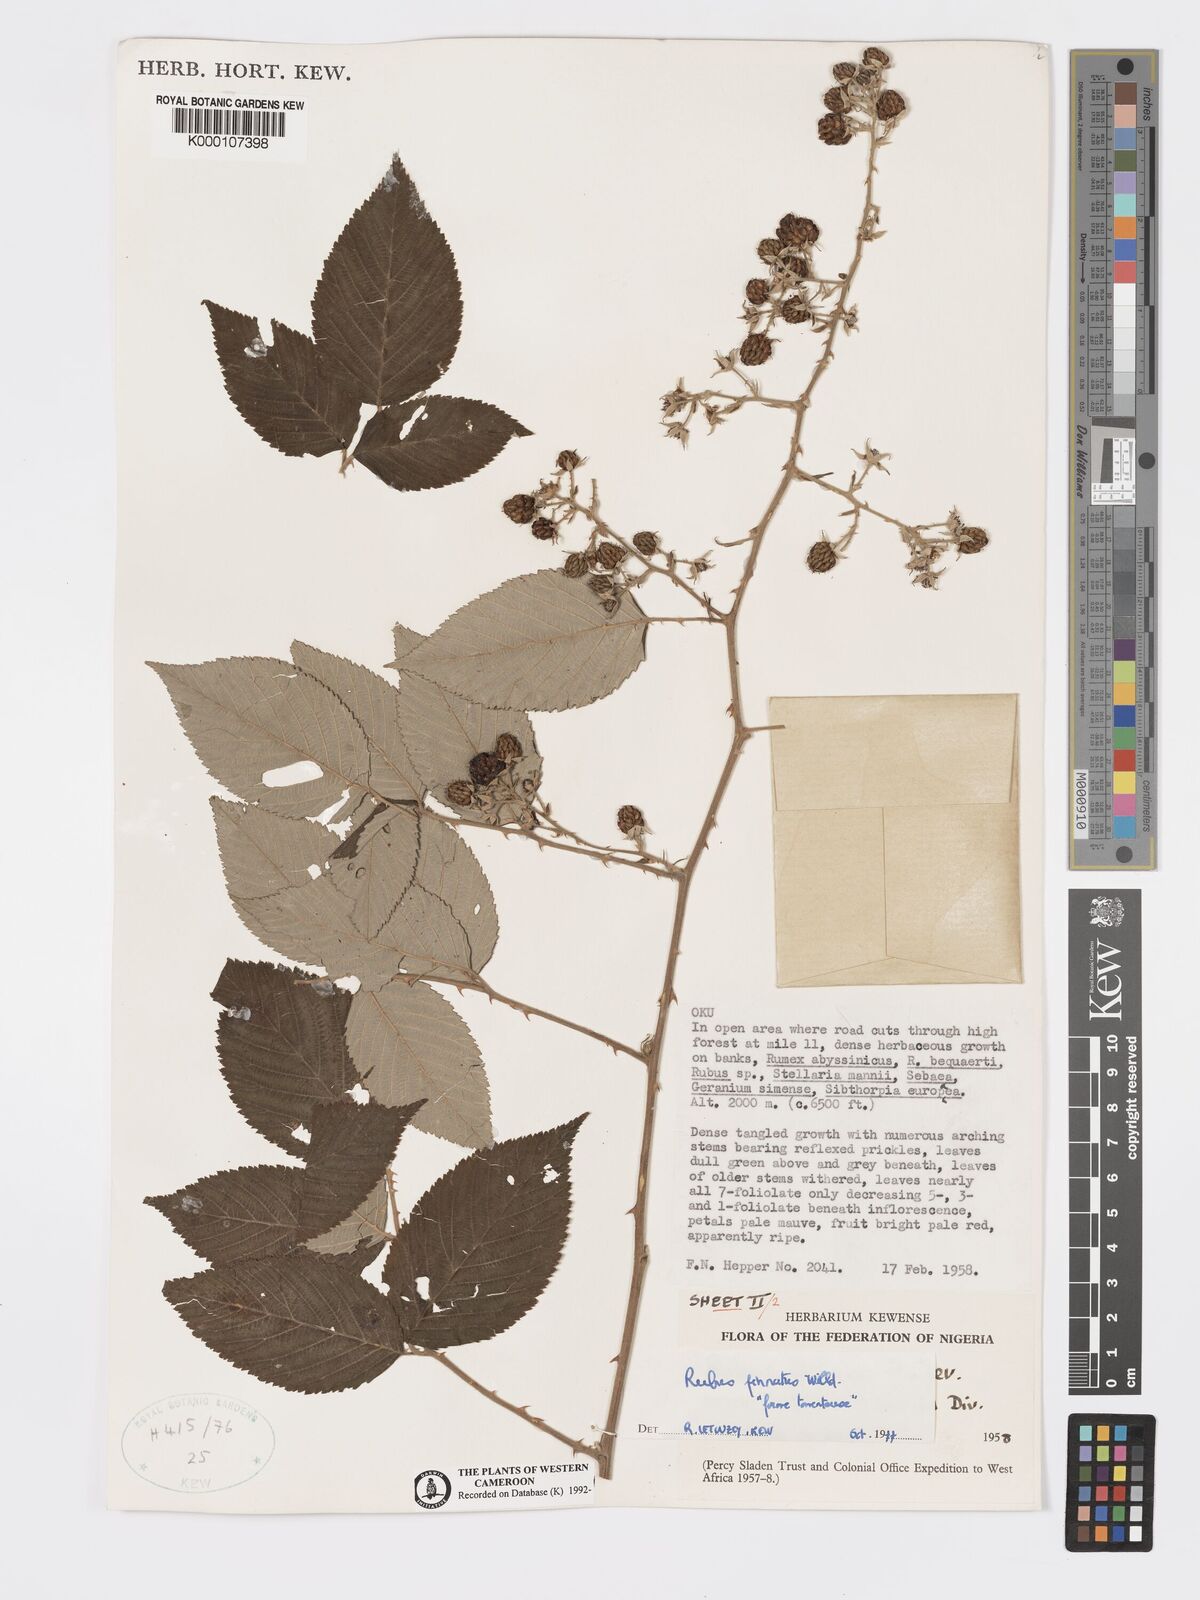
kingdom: Plantae
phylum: Tracheophyta
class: Magnoliopsida
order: Rosales
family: Rosaceae
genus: Rubus
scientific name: Rubus pinnatus
